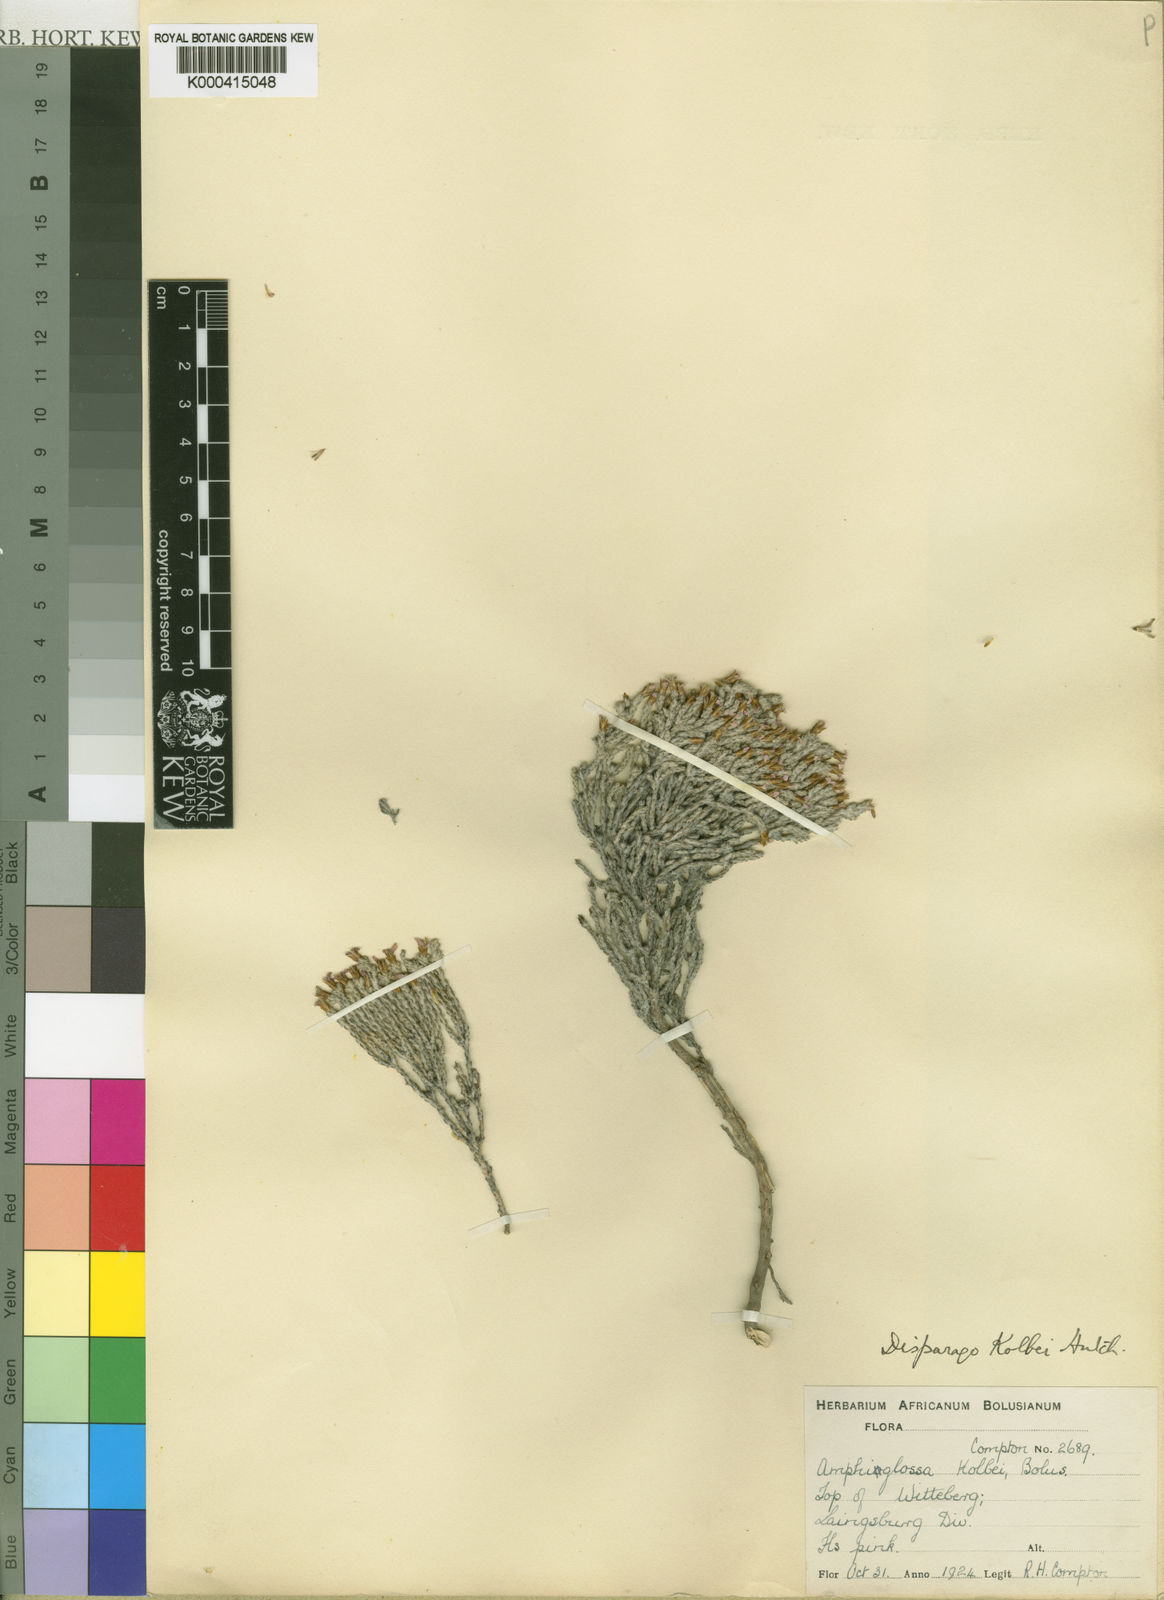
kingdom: Plantae
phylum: Tracheophyta
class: Magnoliopsida
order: Asterales
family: Asteraceae
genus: Disparago
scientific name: Disparago kolbei
